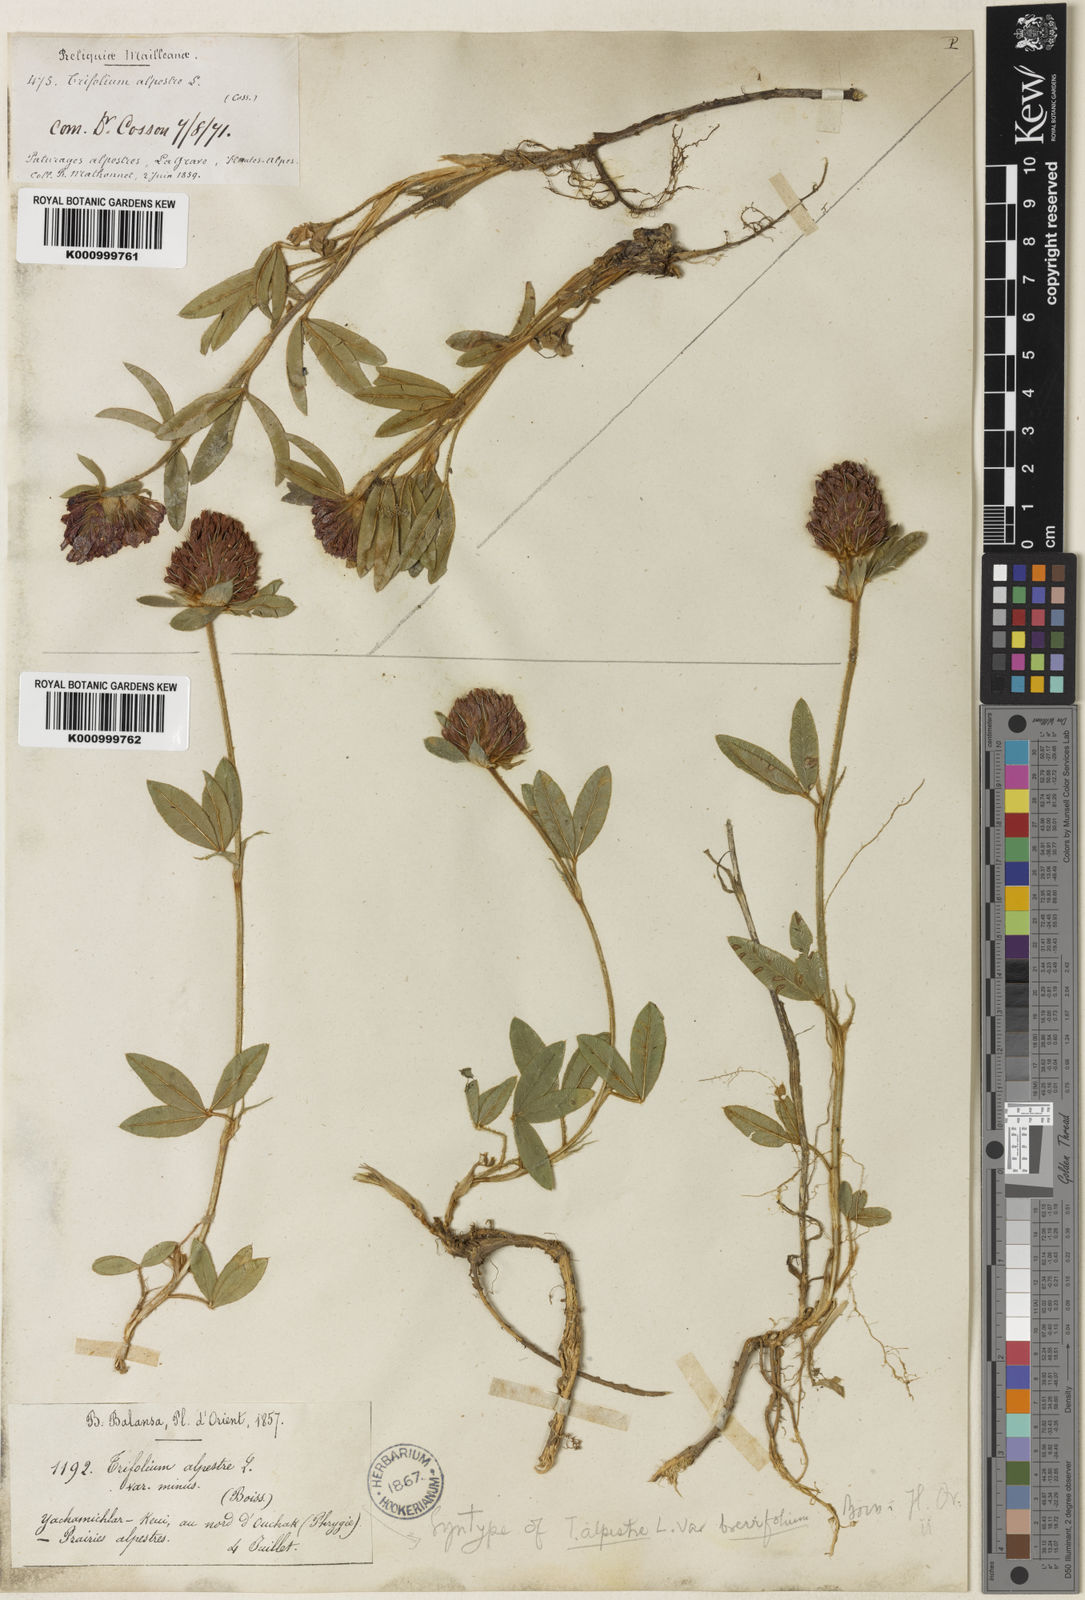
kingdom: Plantae
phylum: Tracheophyta
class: Magnoliopsida
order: Fabales
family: Fabaceae
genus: Trifolium
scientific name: Trifolium alpestre
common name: Owl-head clover
